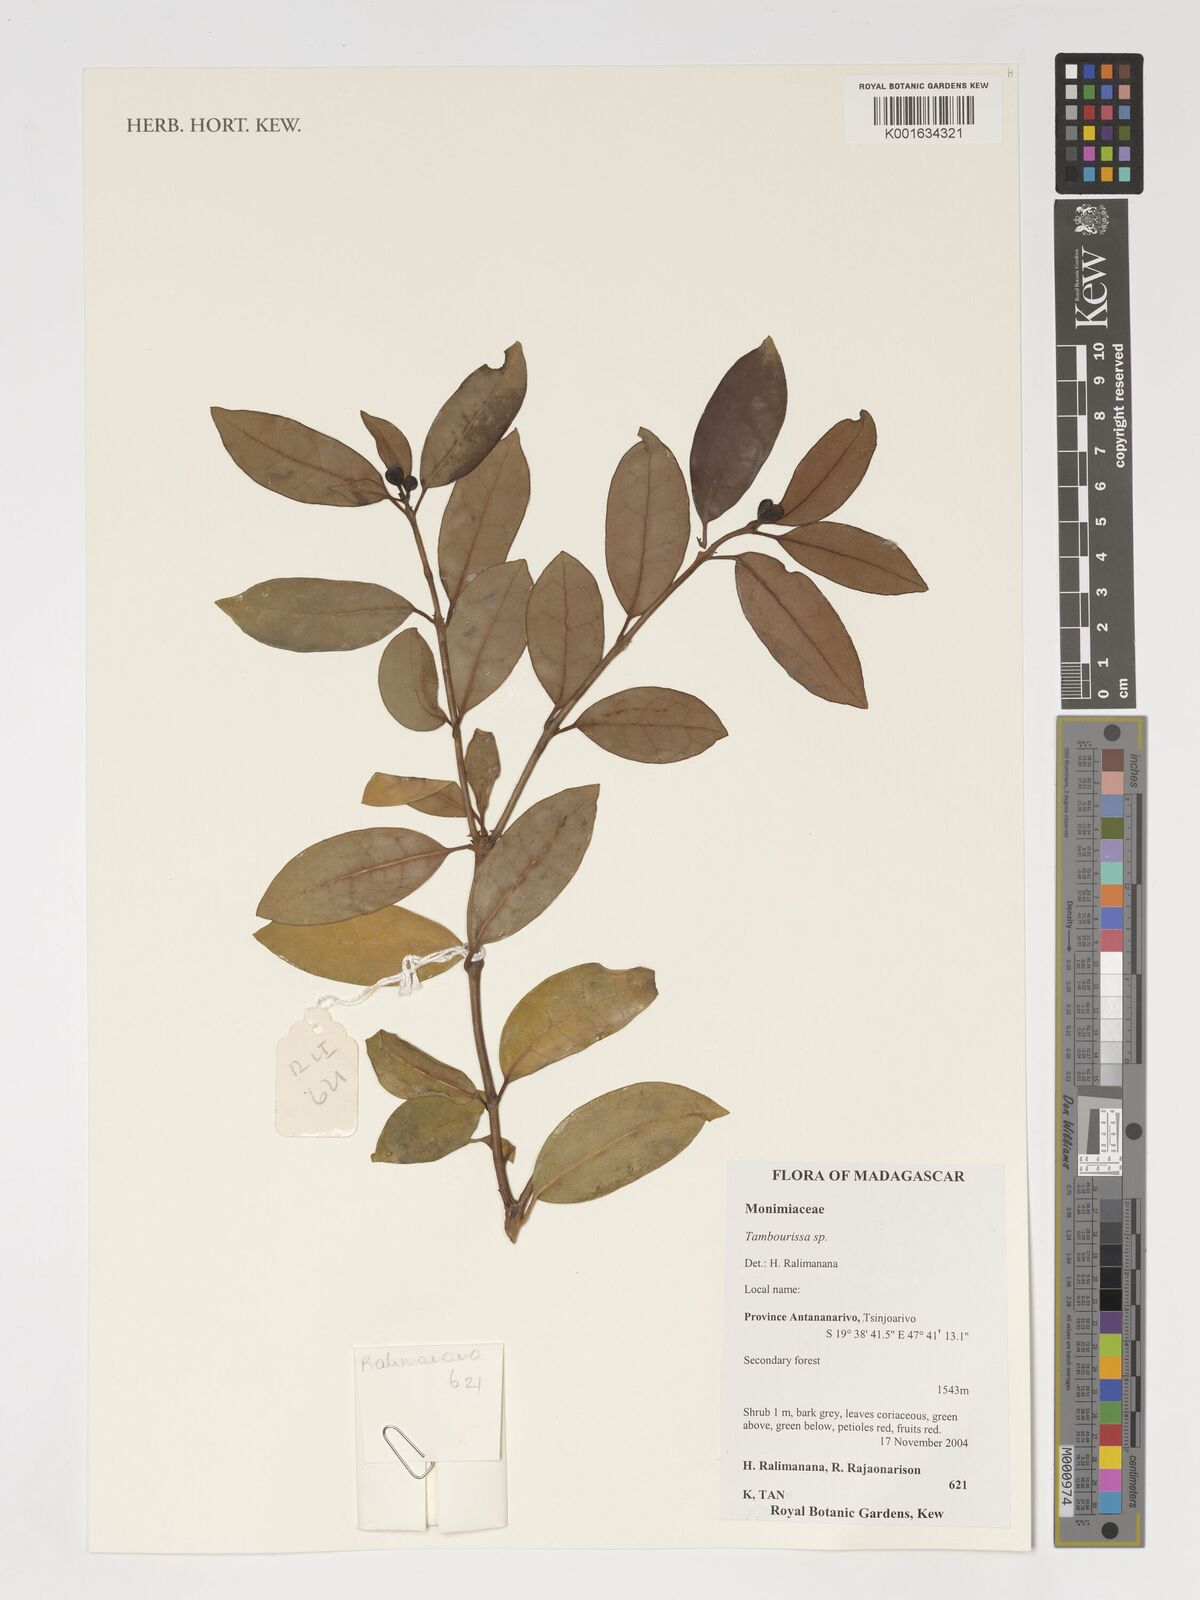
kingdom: Plantae
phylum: Tracheophyta
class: Magnoliopsida
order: Laurales
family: Monimiaceae
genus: Tambourissa
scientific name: Tambourissa
